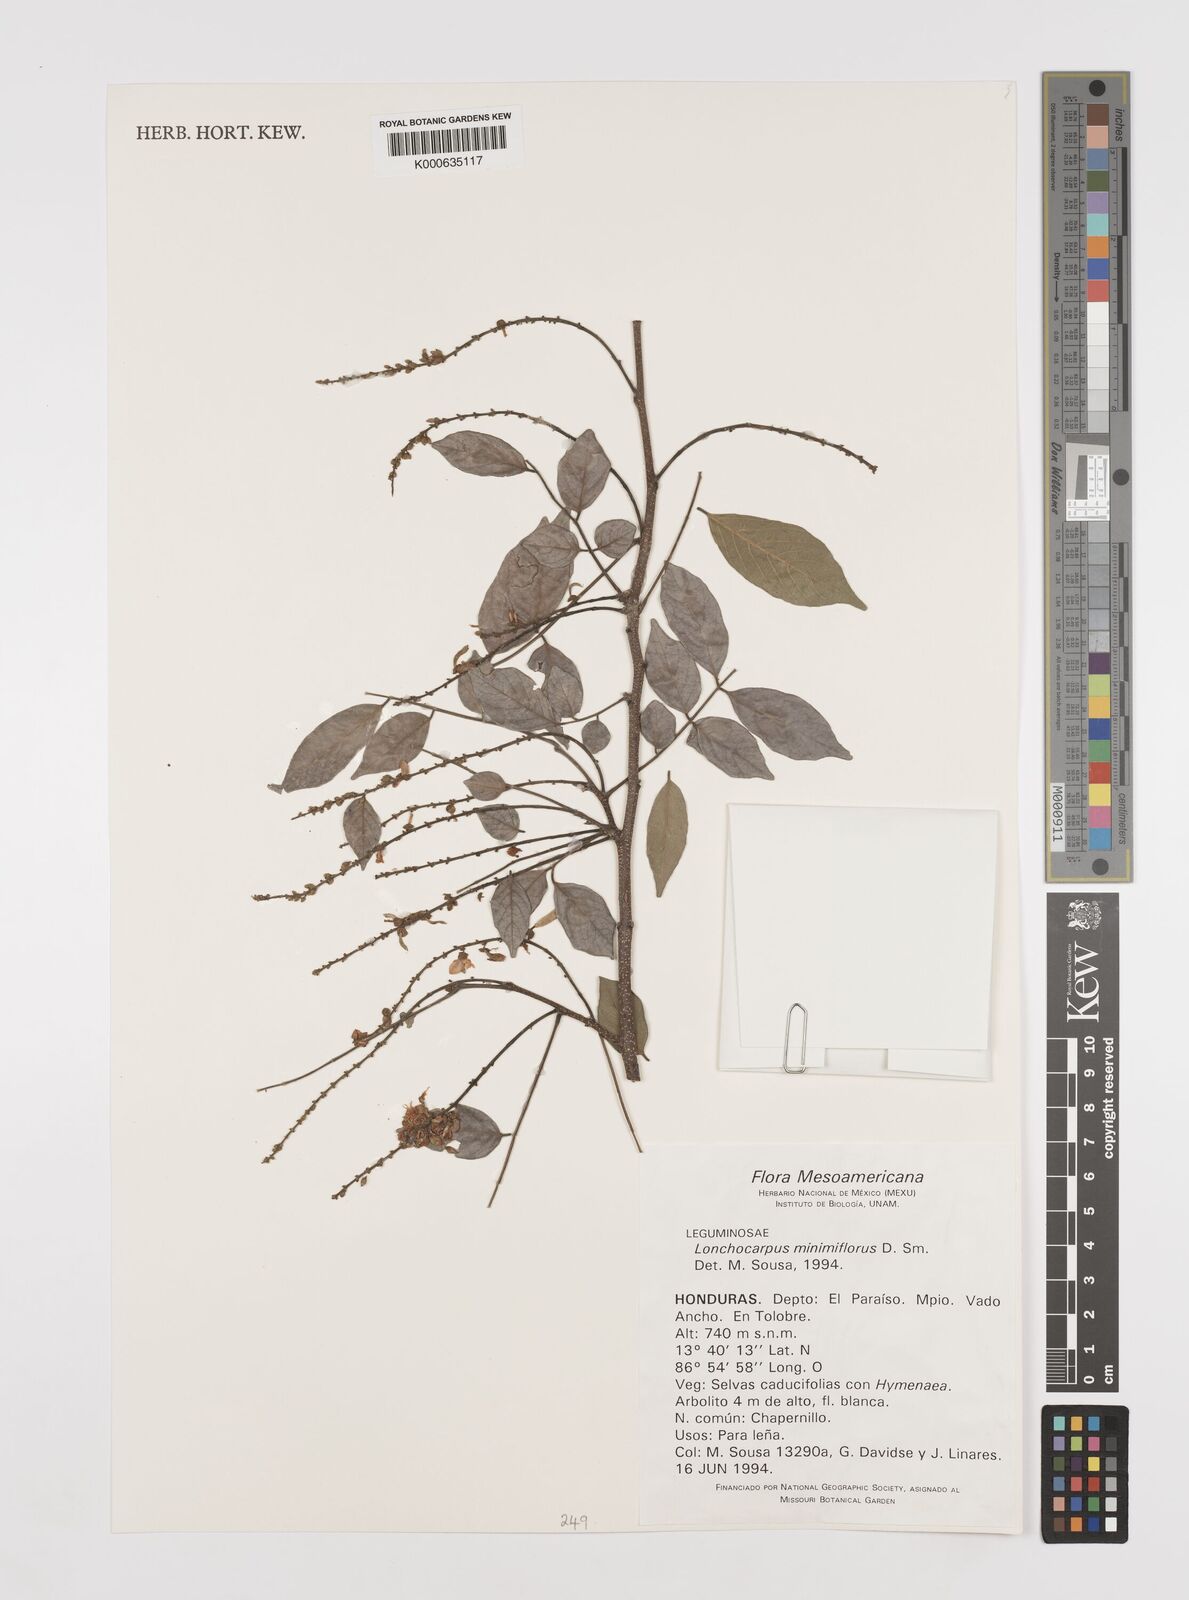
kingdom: Plantae
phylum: Tracheophyta
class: Magnoliopsida
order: Fabales
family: Fabaceae
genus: Lonchocarpus
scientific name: Lonchocarpus minimiflorus
